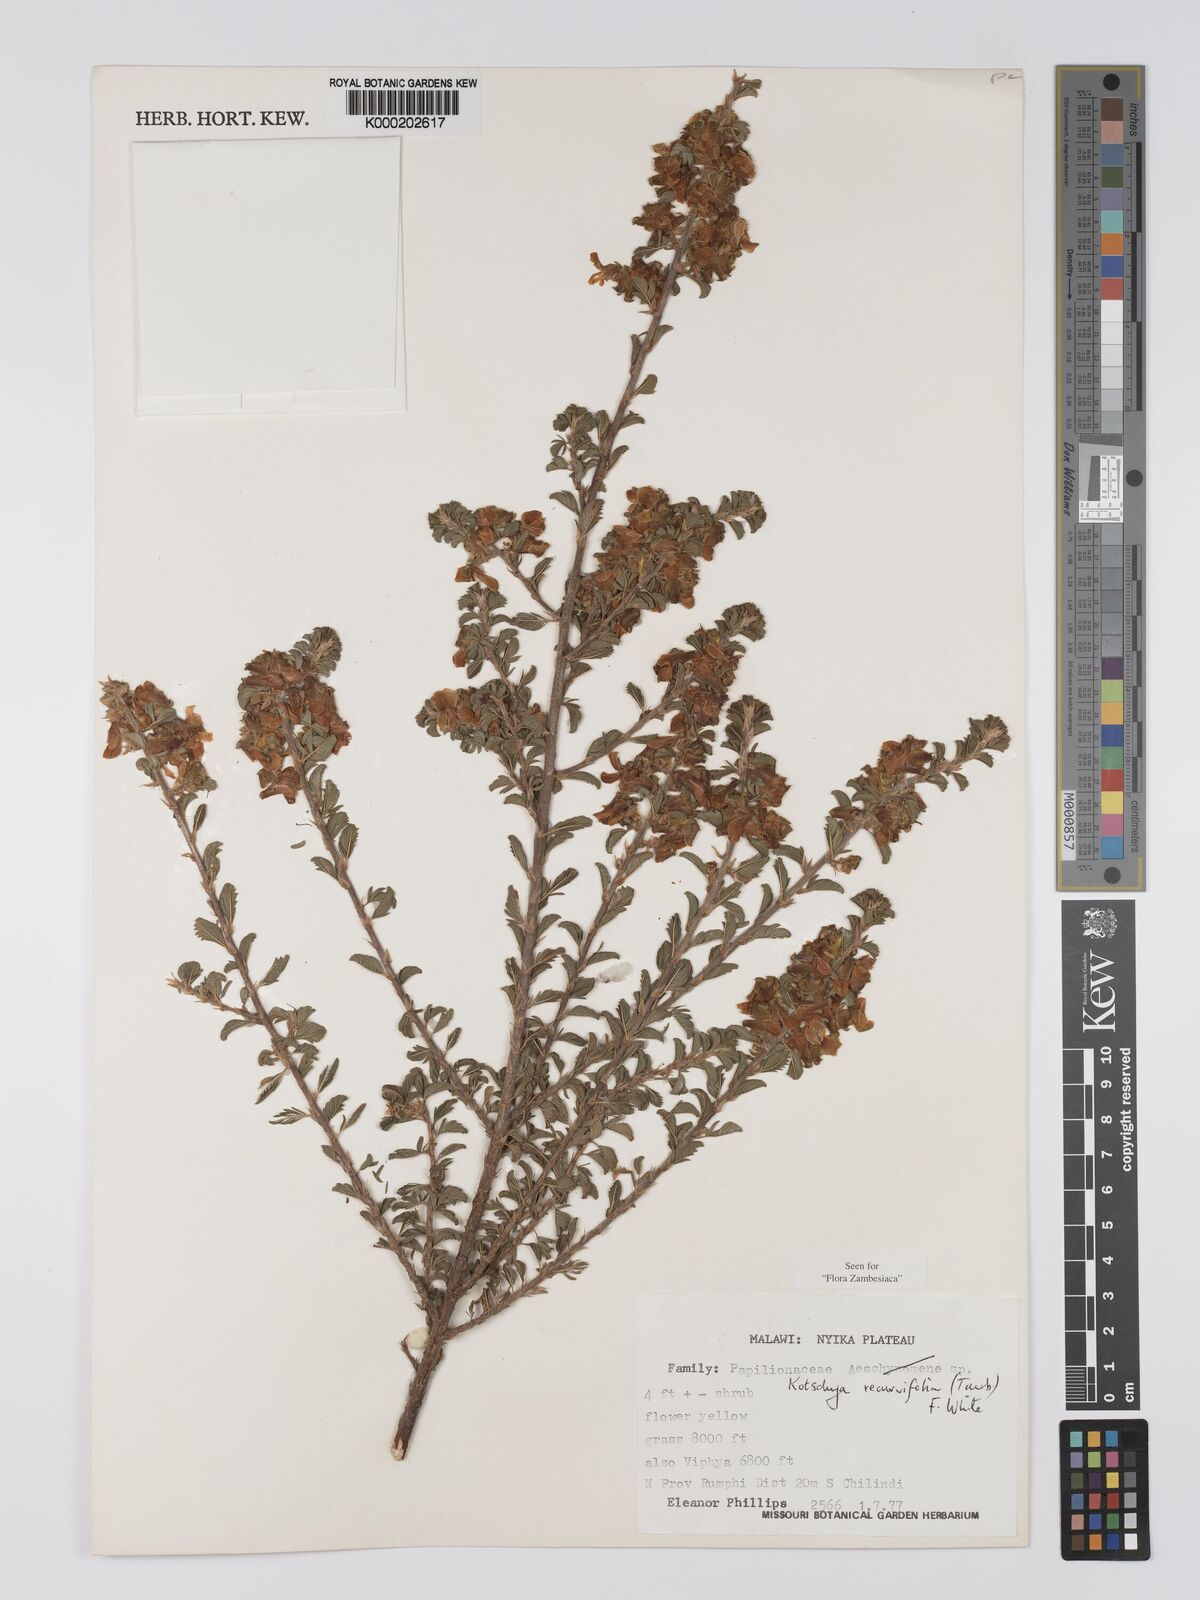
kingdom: Plantae
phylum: Tracheophyta
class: Magnoliopsida
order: Fabales
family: Fabaceae
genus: Kotschya
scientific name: Kotschya recurvifolia
